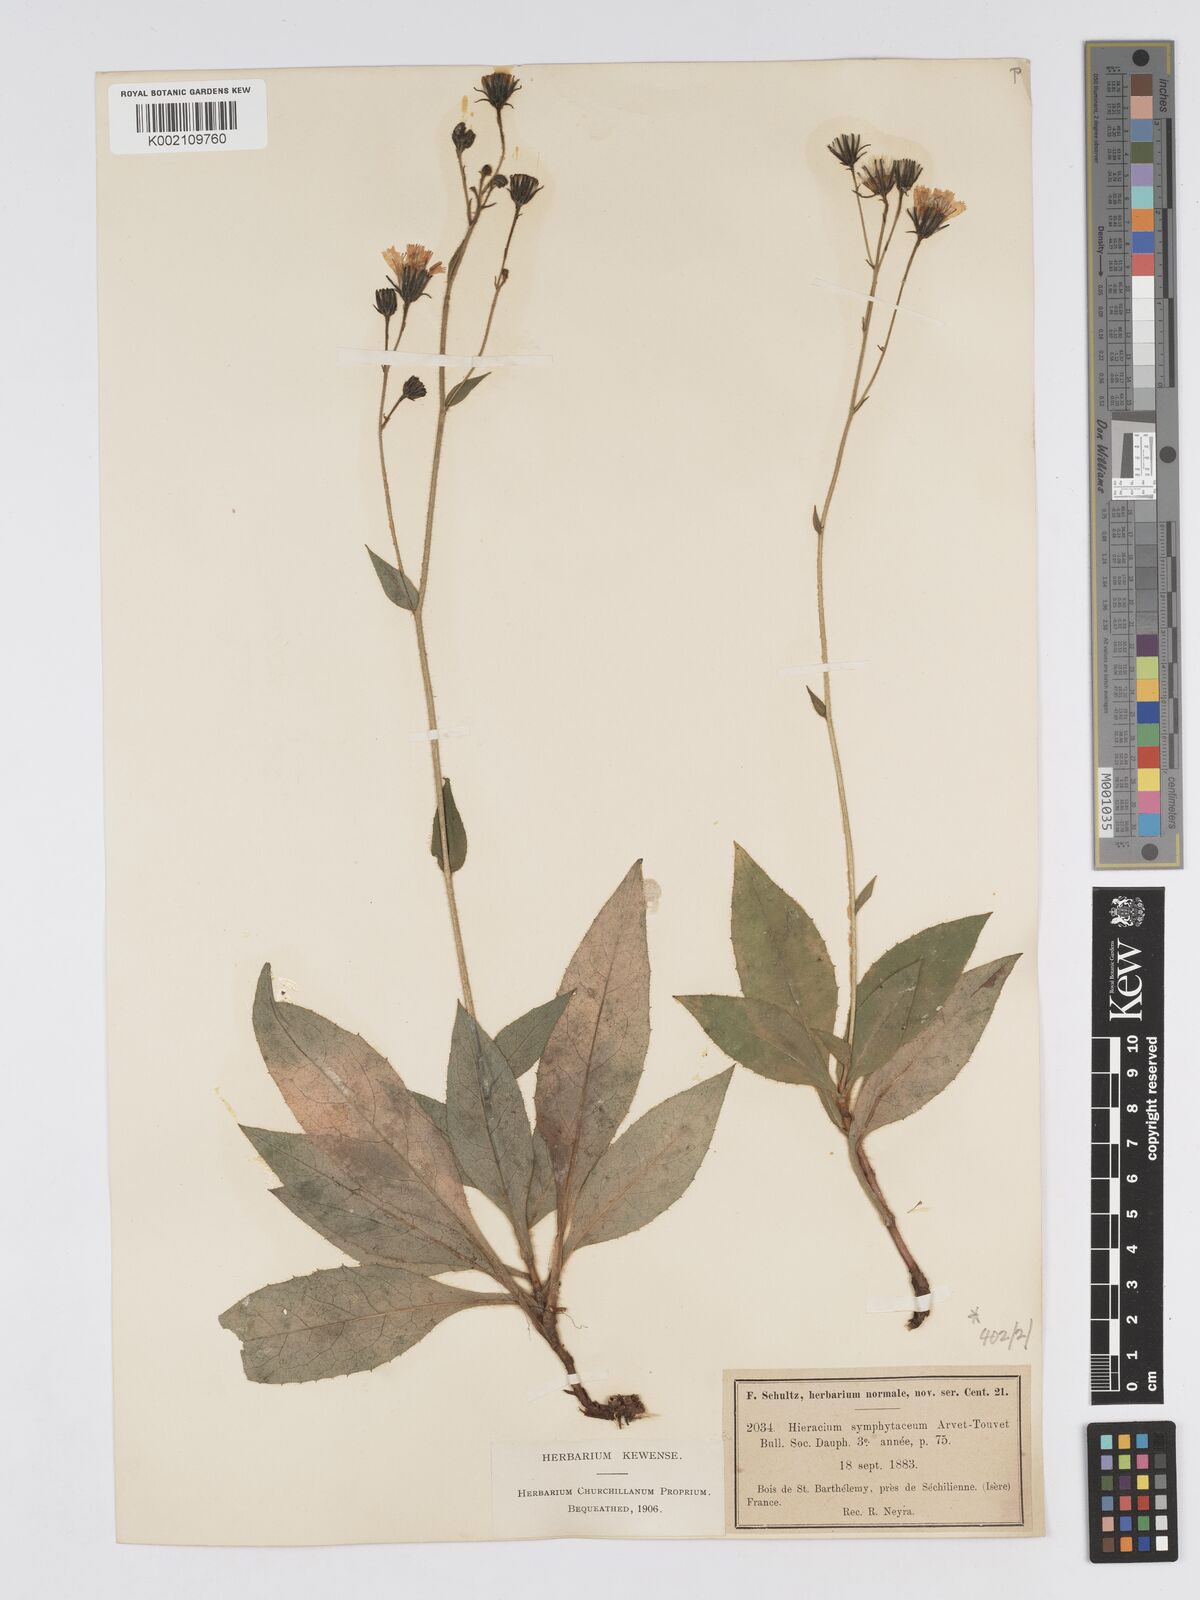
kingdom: Plantae
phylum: Tracheophyta
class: Magnoliopsida
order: Asterales
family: Asteraceae
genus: Hieracium
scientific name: Hieracium symphytaceum
